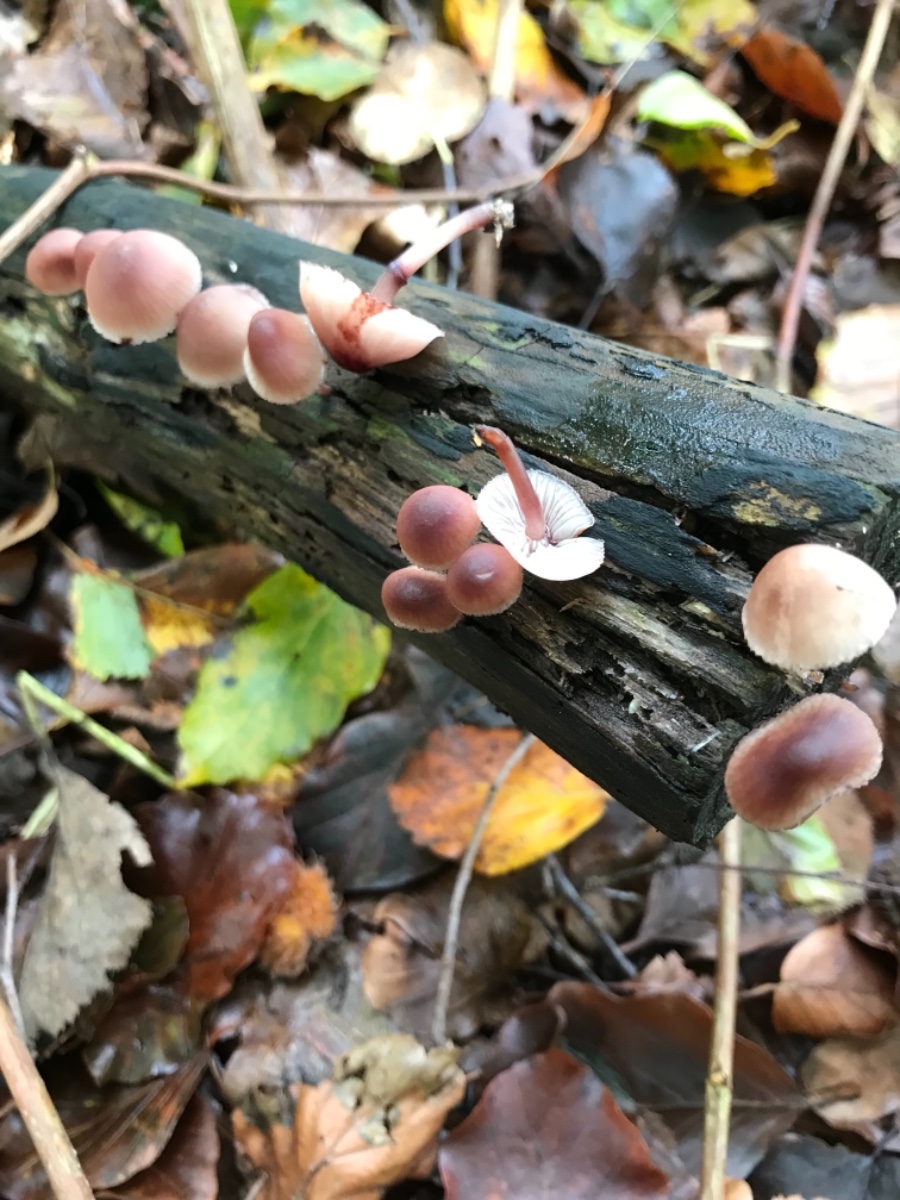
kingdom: Fungi
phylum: Basidiomycota
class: Agaricomycetes
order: Agaricales
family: Mycenaceae
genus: Mycena
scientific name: Mycena haematopus
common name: blødende huesvamp
